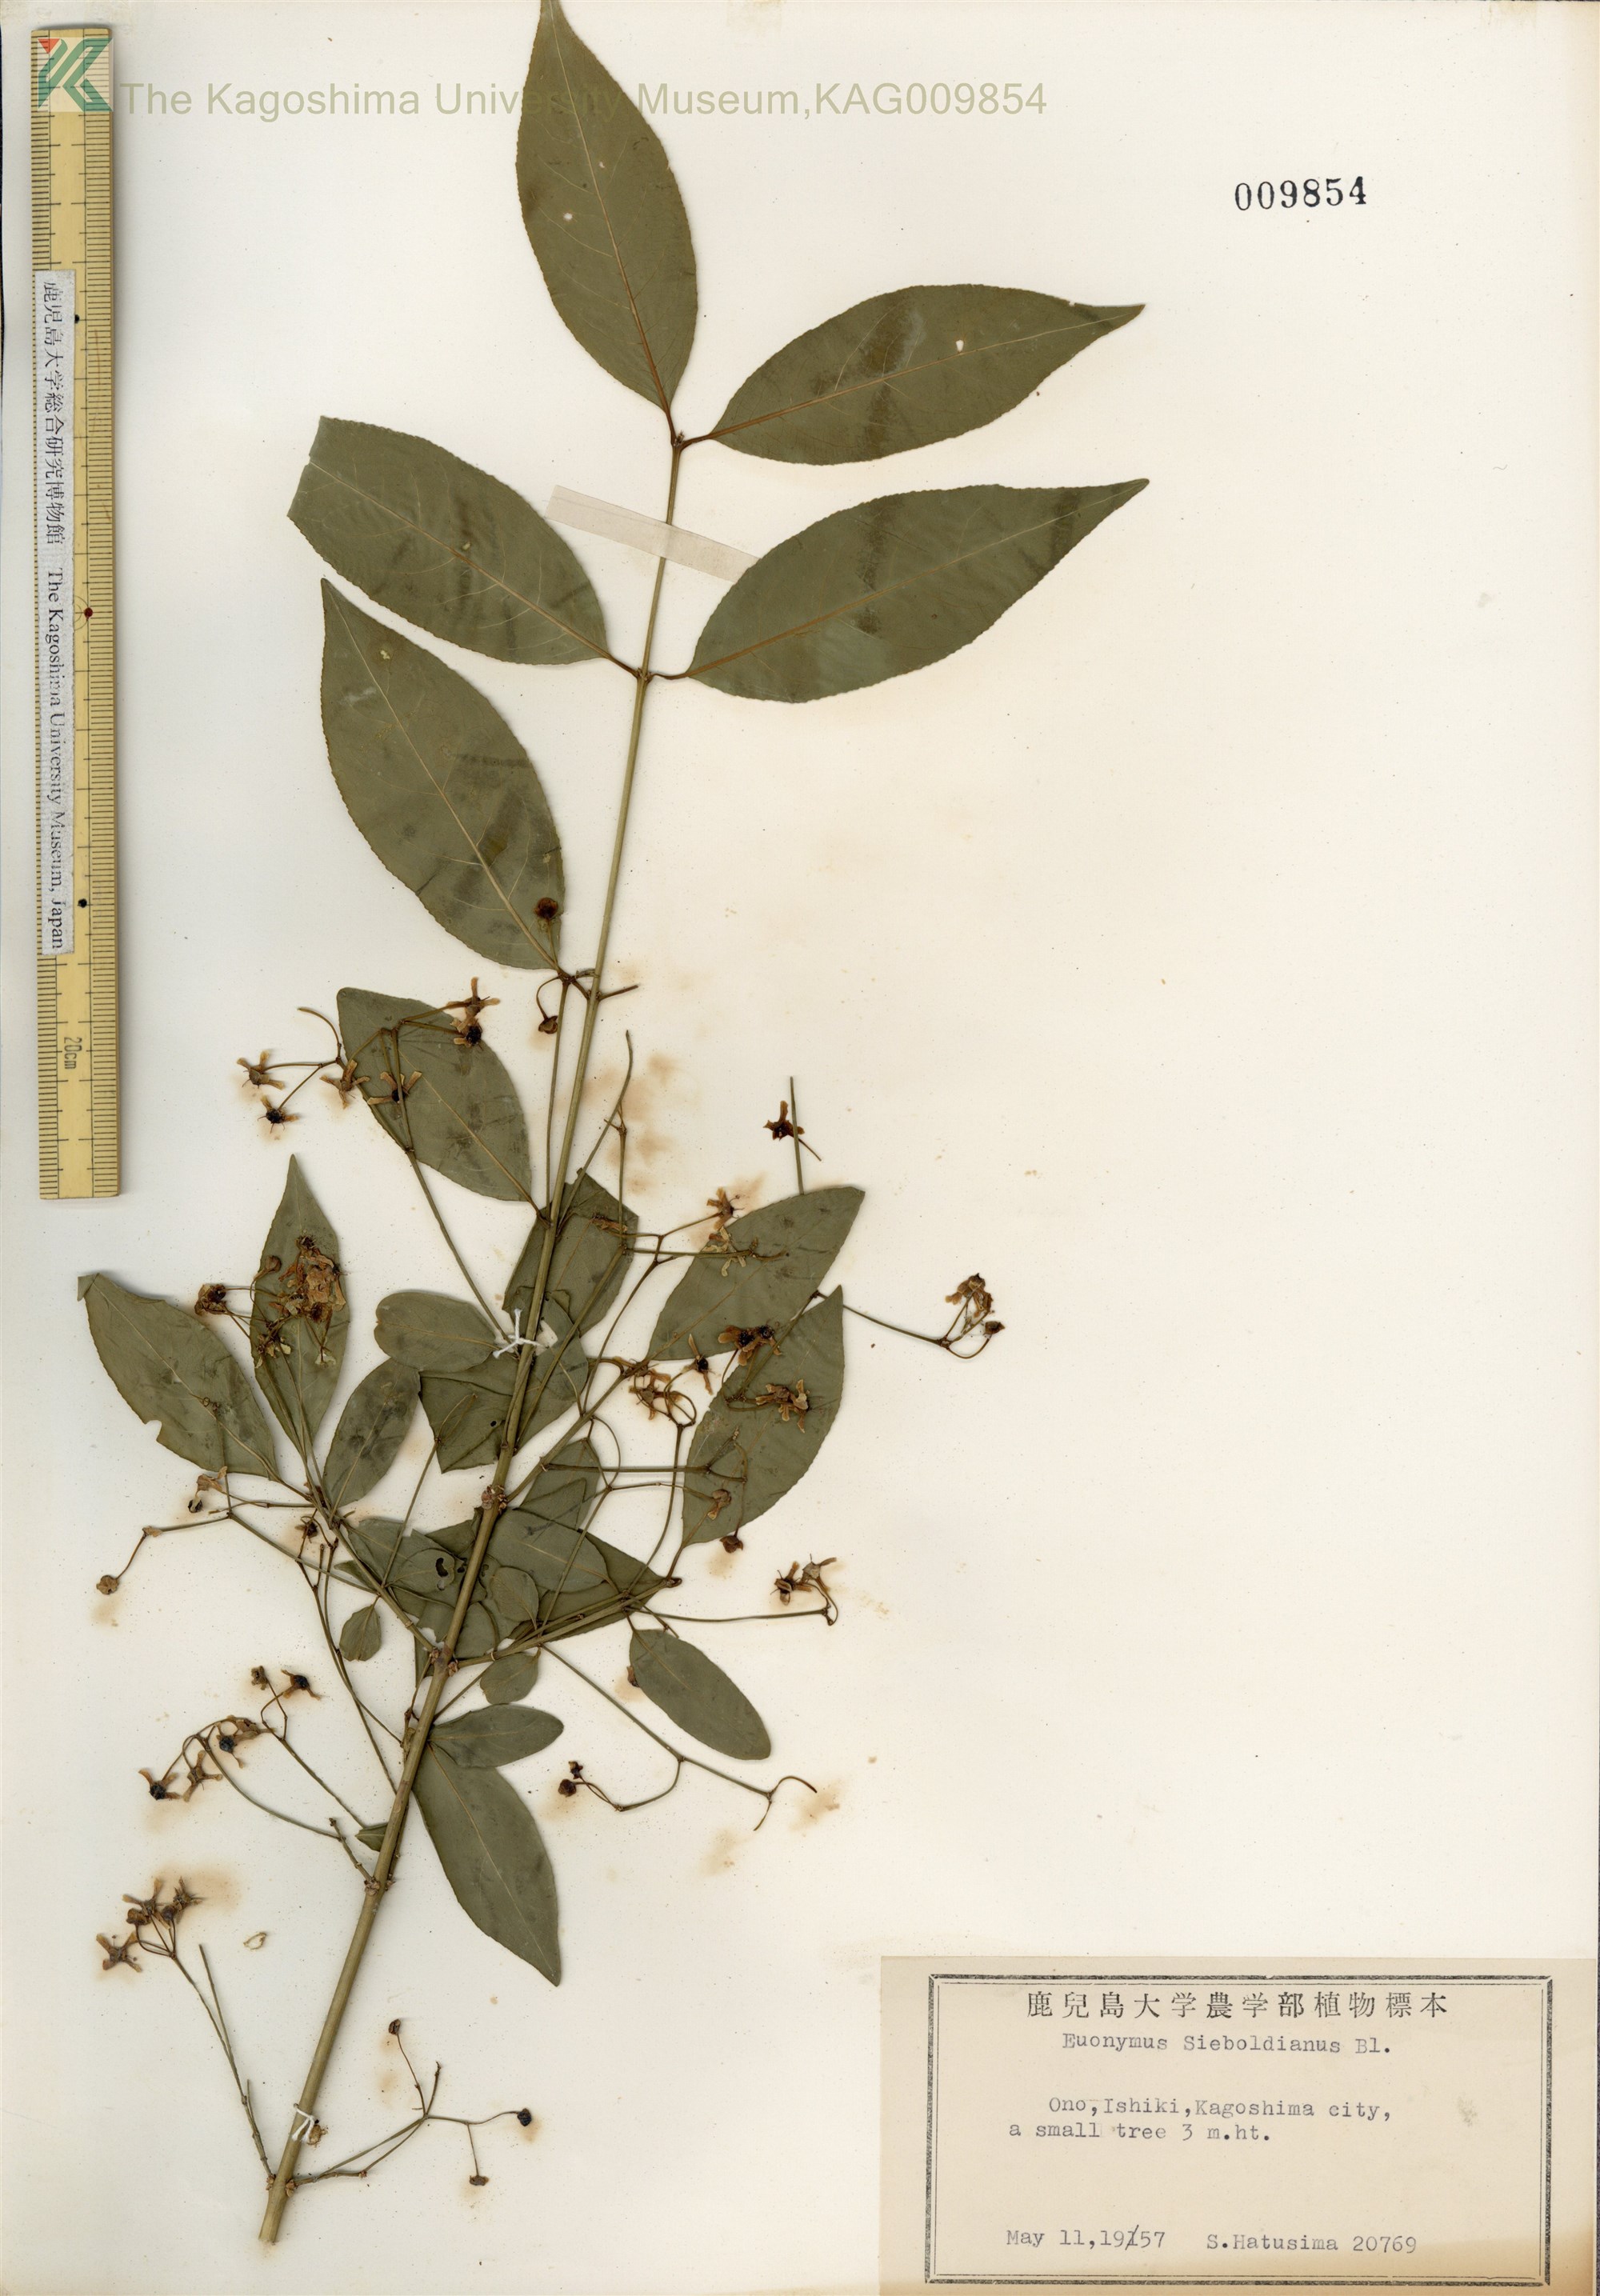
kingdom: Plantae
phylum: Tracheophyta
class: Magnoliopsida
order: Celastrales
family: Celastraceae
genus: Euonymus
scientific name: Euonymus hamiltonianus
